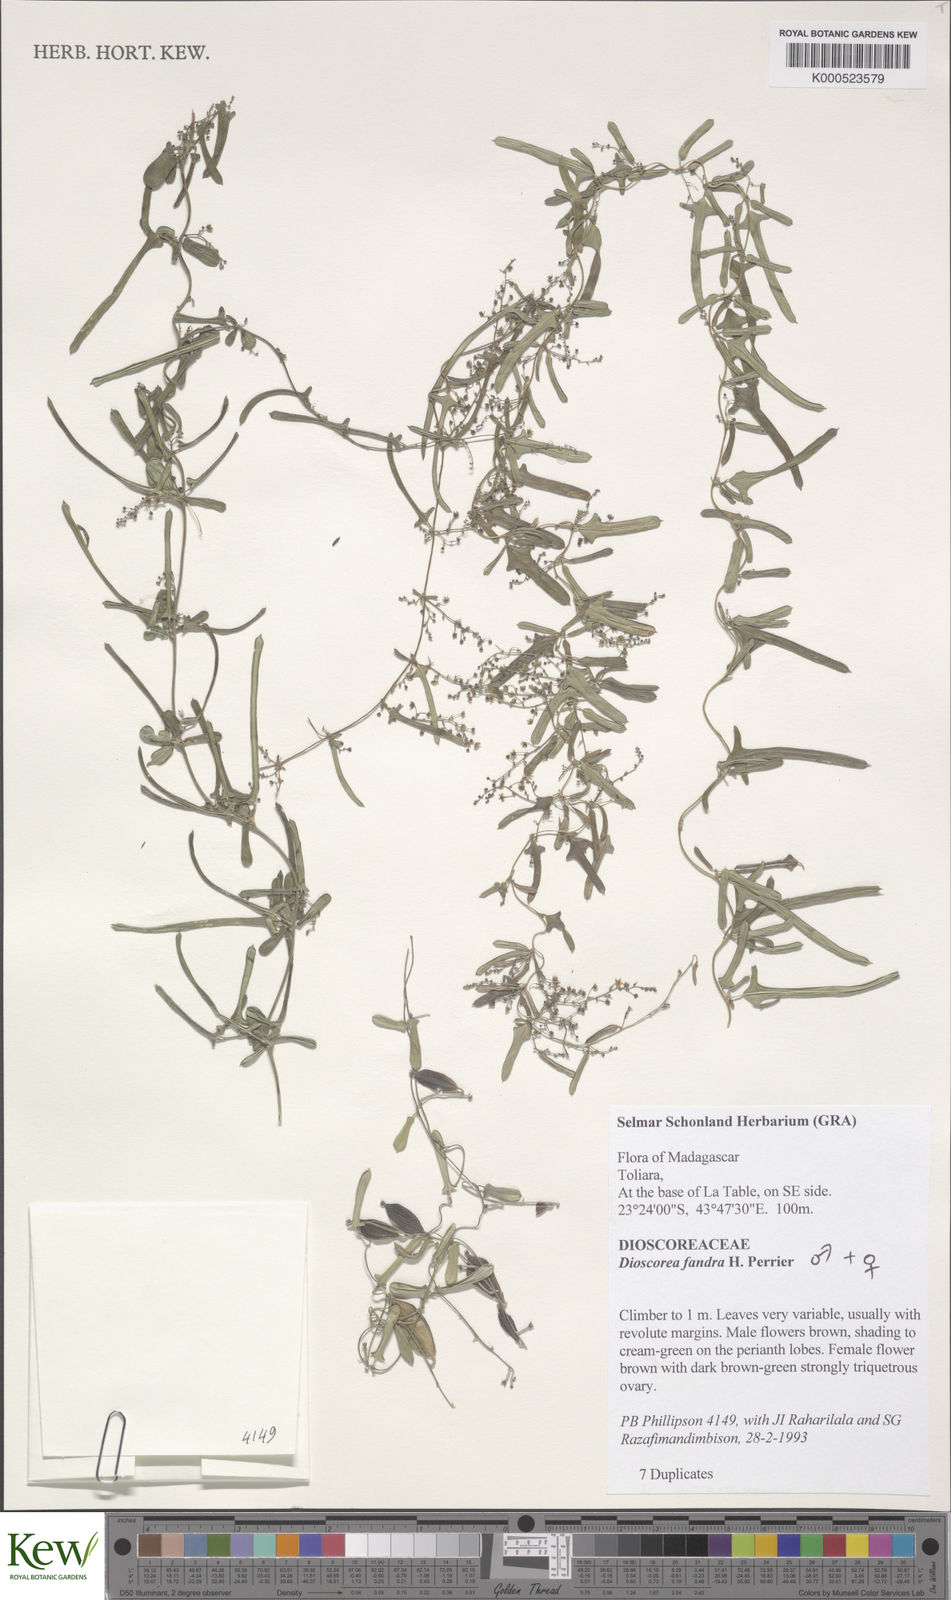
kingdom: Plantae
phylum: Tracheophyta
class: Liliopsida
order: Dioscoreales
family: Dioscoreaceae
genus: Dioscorea
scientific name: Dioscorea
